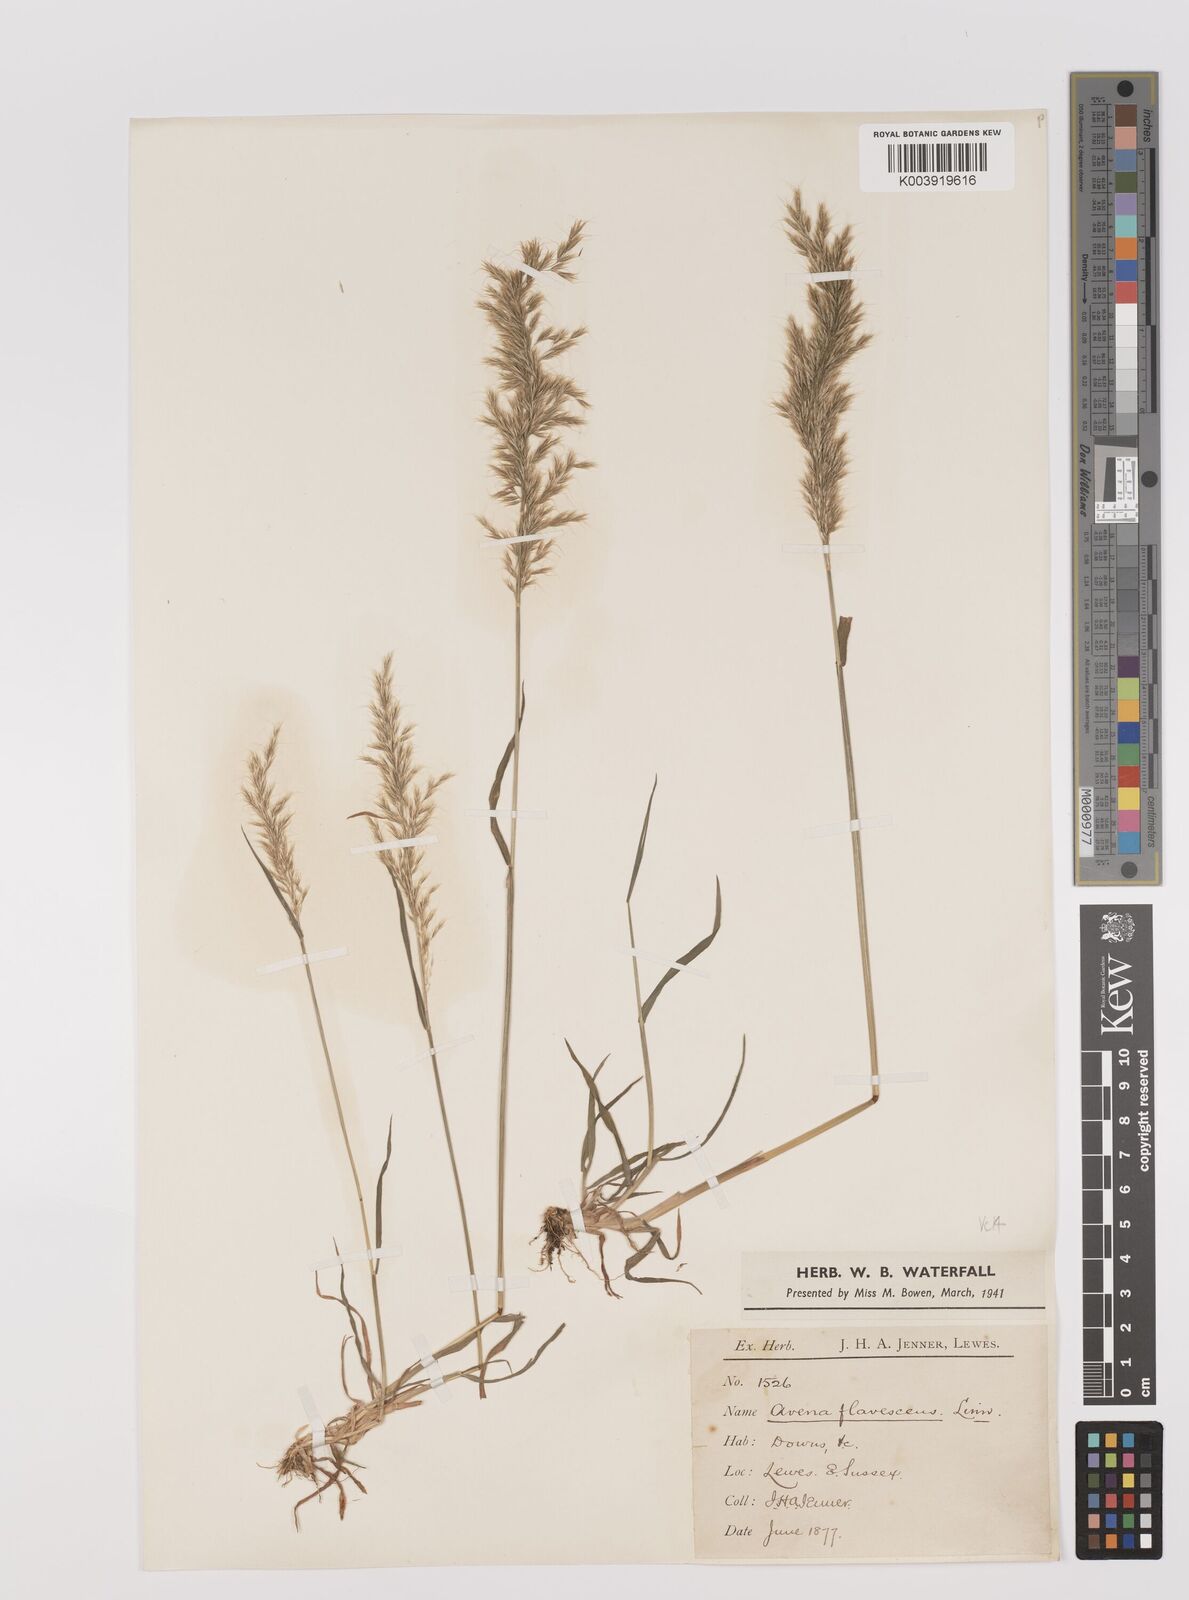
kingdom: Plantae
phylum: Tracheophyta
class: Liliopsida
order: Poales
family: Poaceae
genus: Trisetum
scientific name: Trisetum flavescens
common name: Yellow oat-grass
